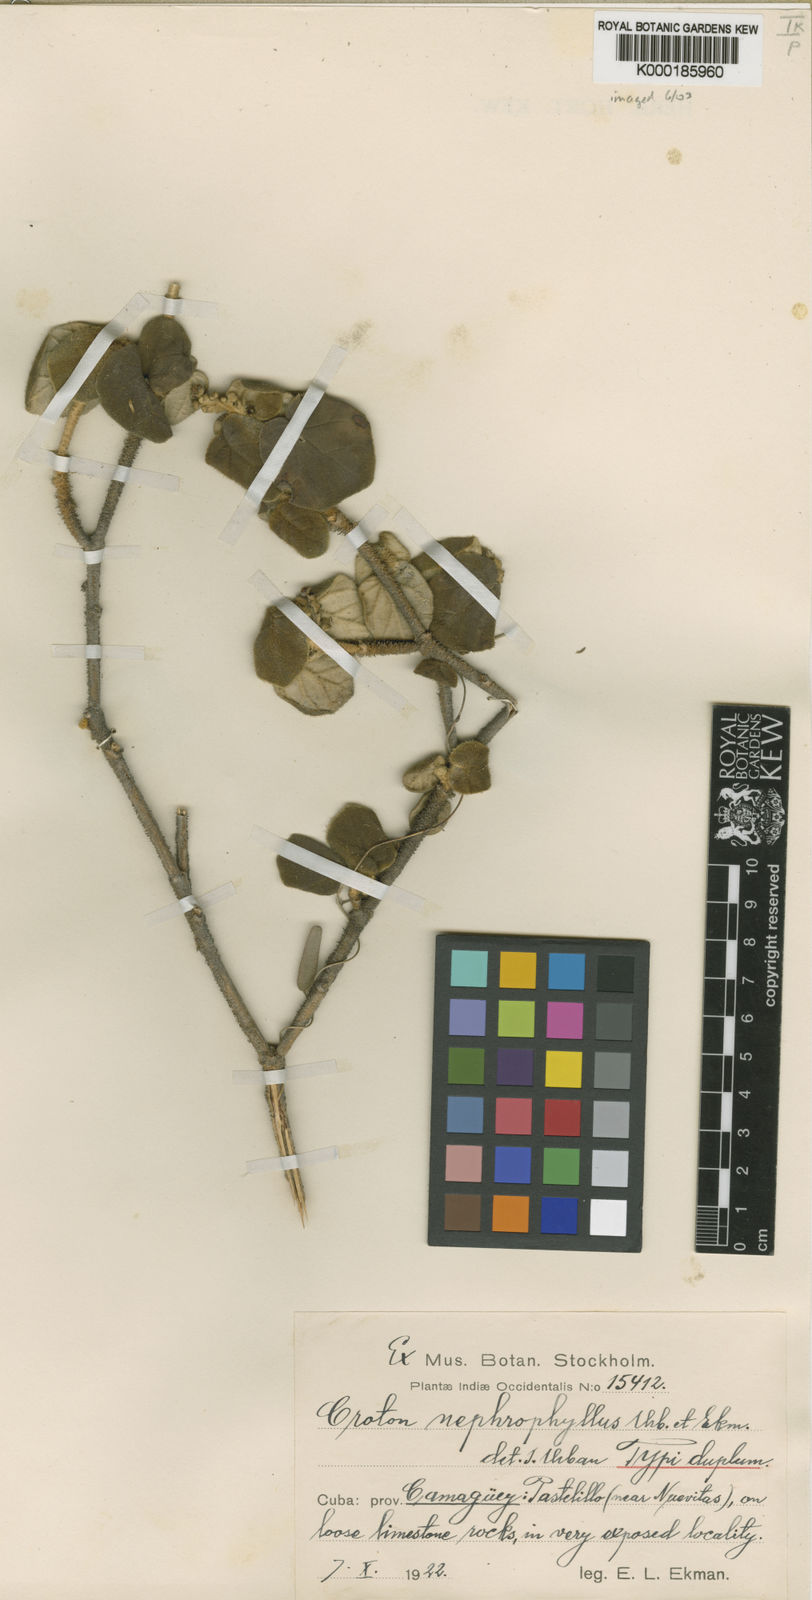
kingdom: Plantae
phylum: Tracheophyta
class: Magnoliopsida
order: Malpighiales
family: Euphorbiaceae
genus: Croton
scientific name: Croton origanifolius
